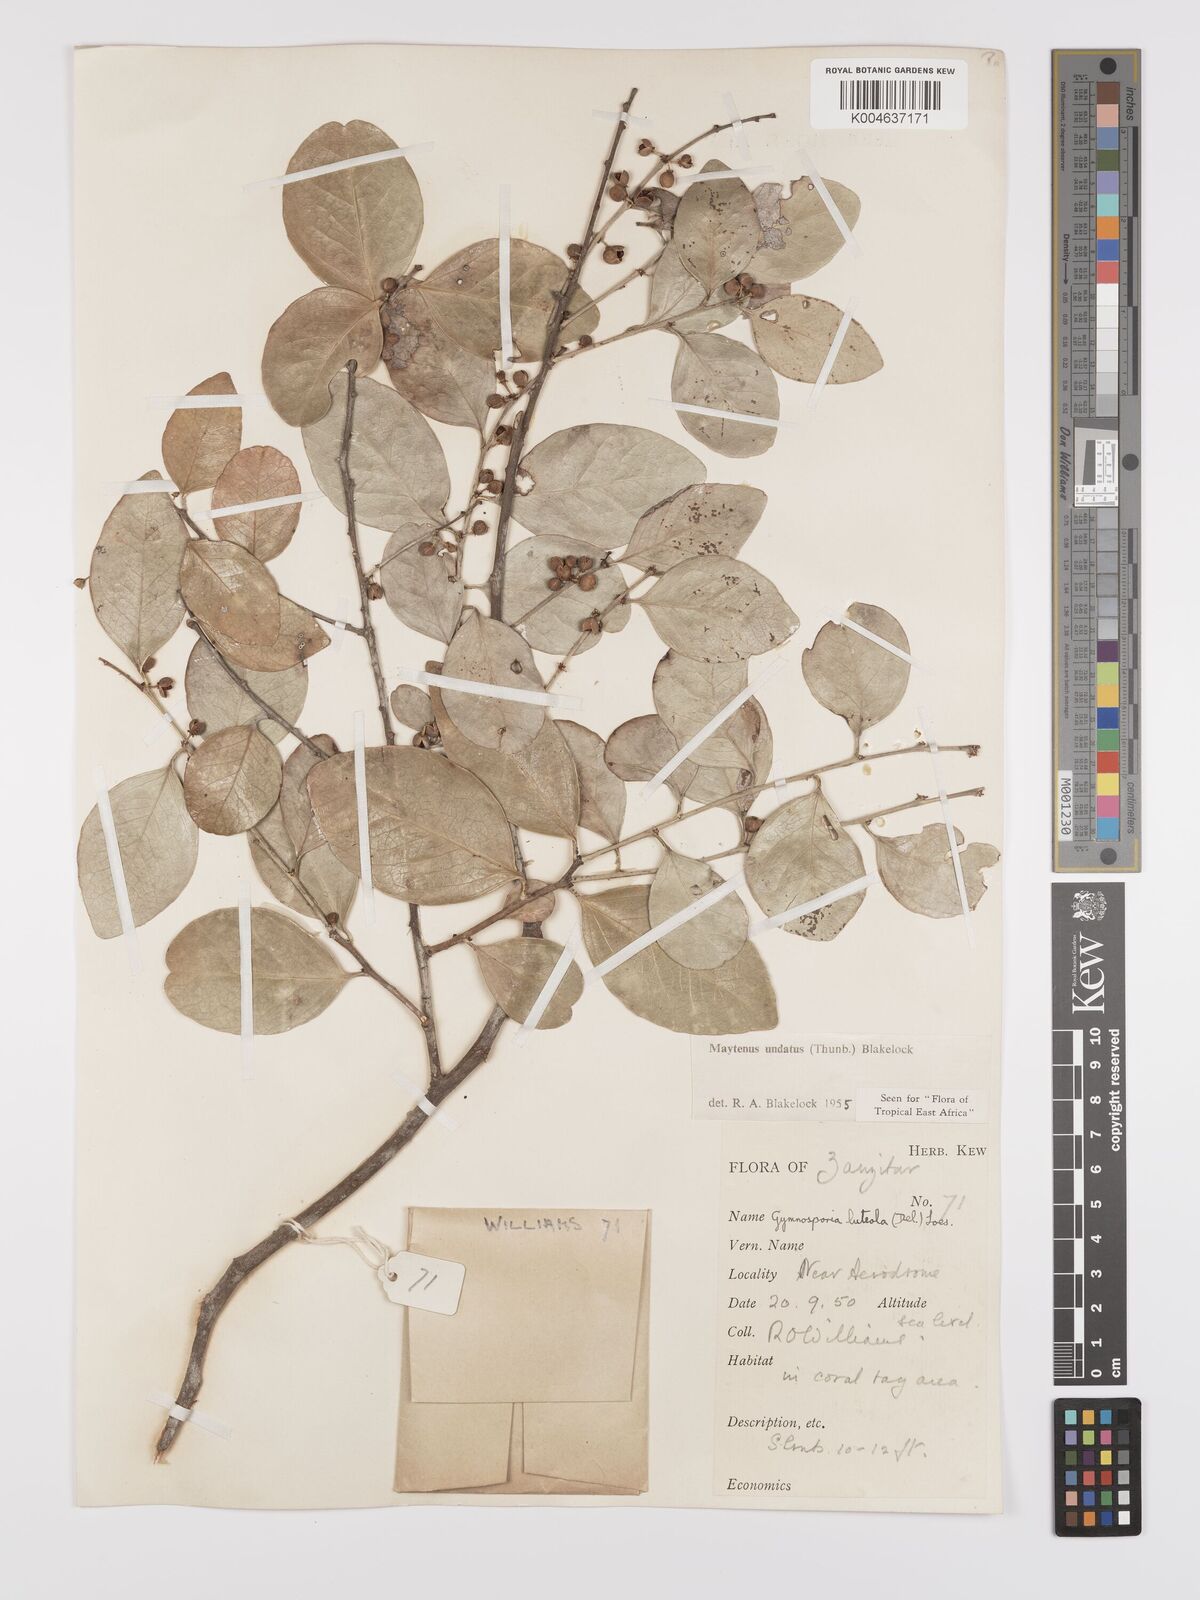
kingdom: Plantae
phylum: Tracheophyta
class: Magnoliopsida
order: Celastrales
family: Celastraceae
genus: Gymnosporia
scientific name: Gymnosporia undata
